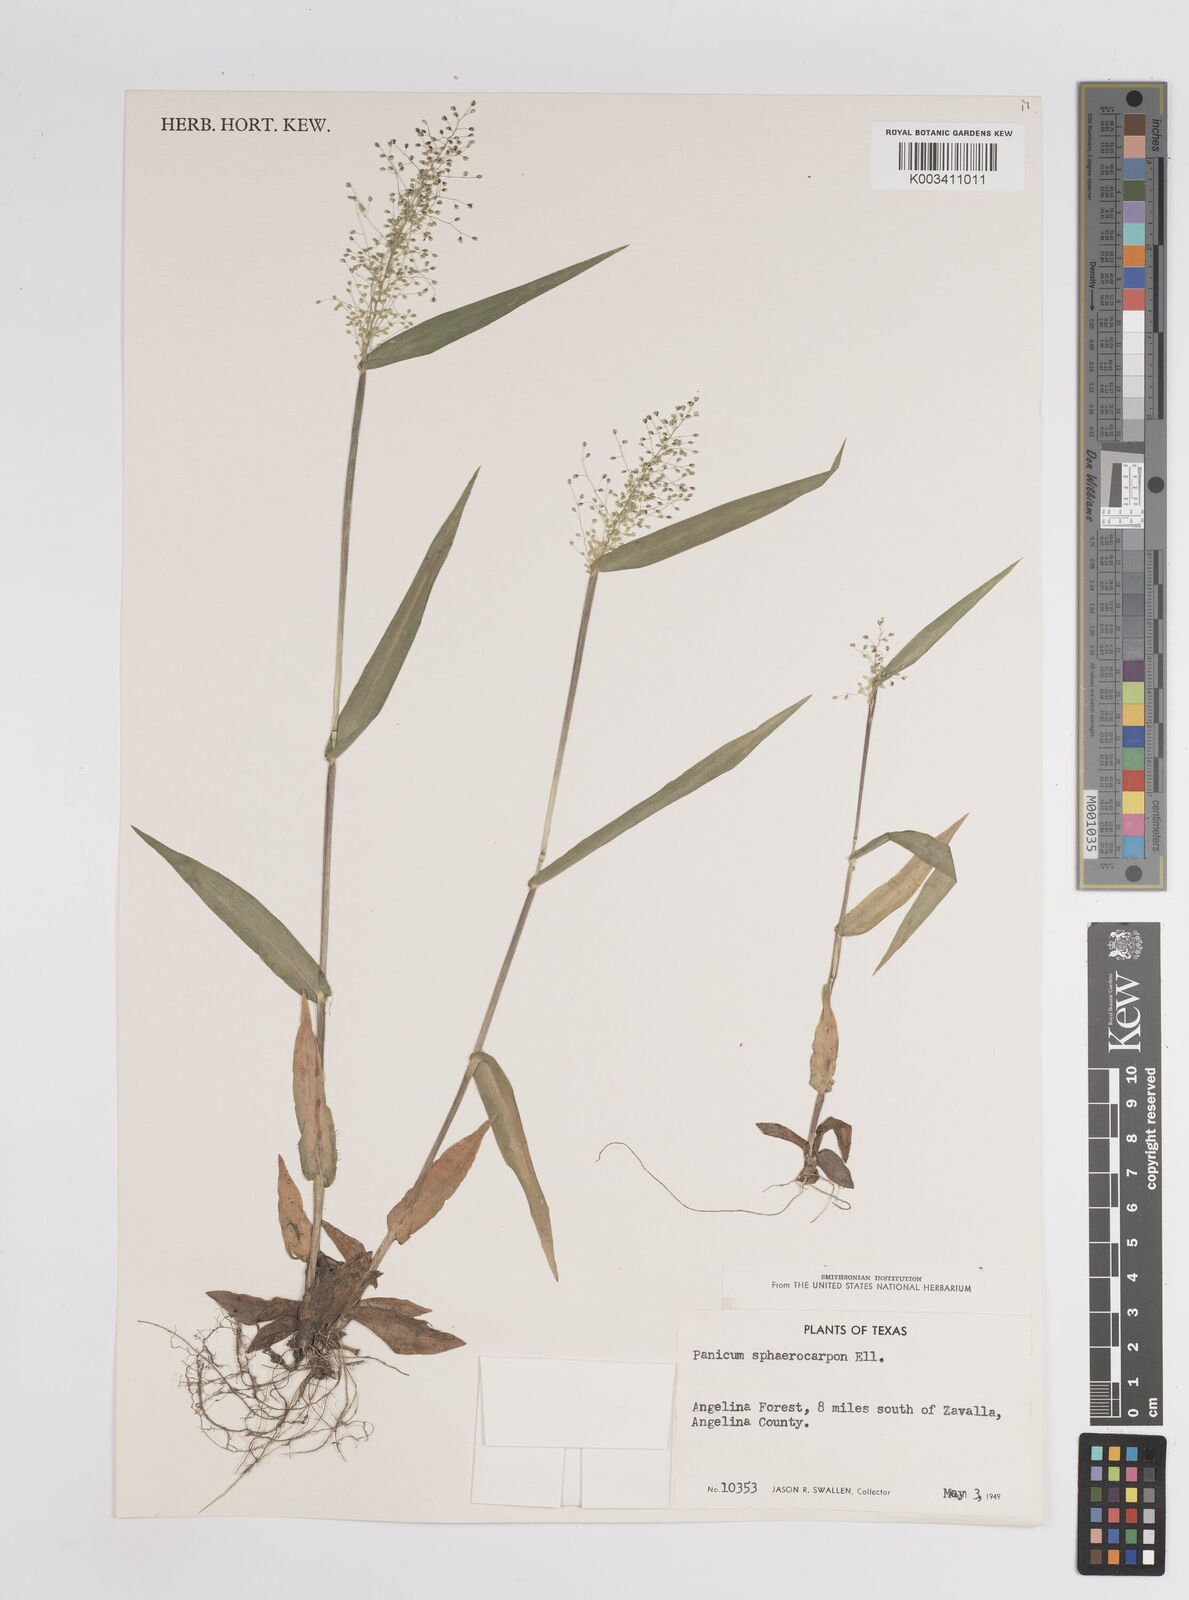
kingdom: Plantae
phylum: Tracheophyta
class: Liliopsida
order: Poales
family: Poaceae
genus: Setaria
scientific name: Setaria tenax
